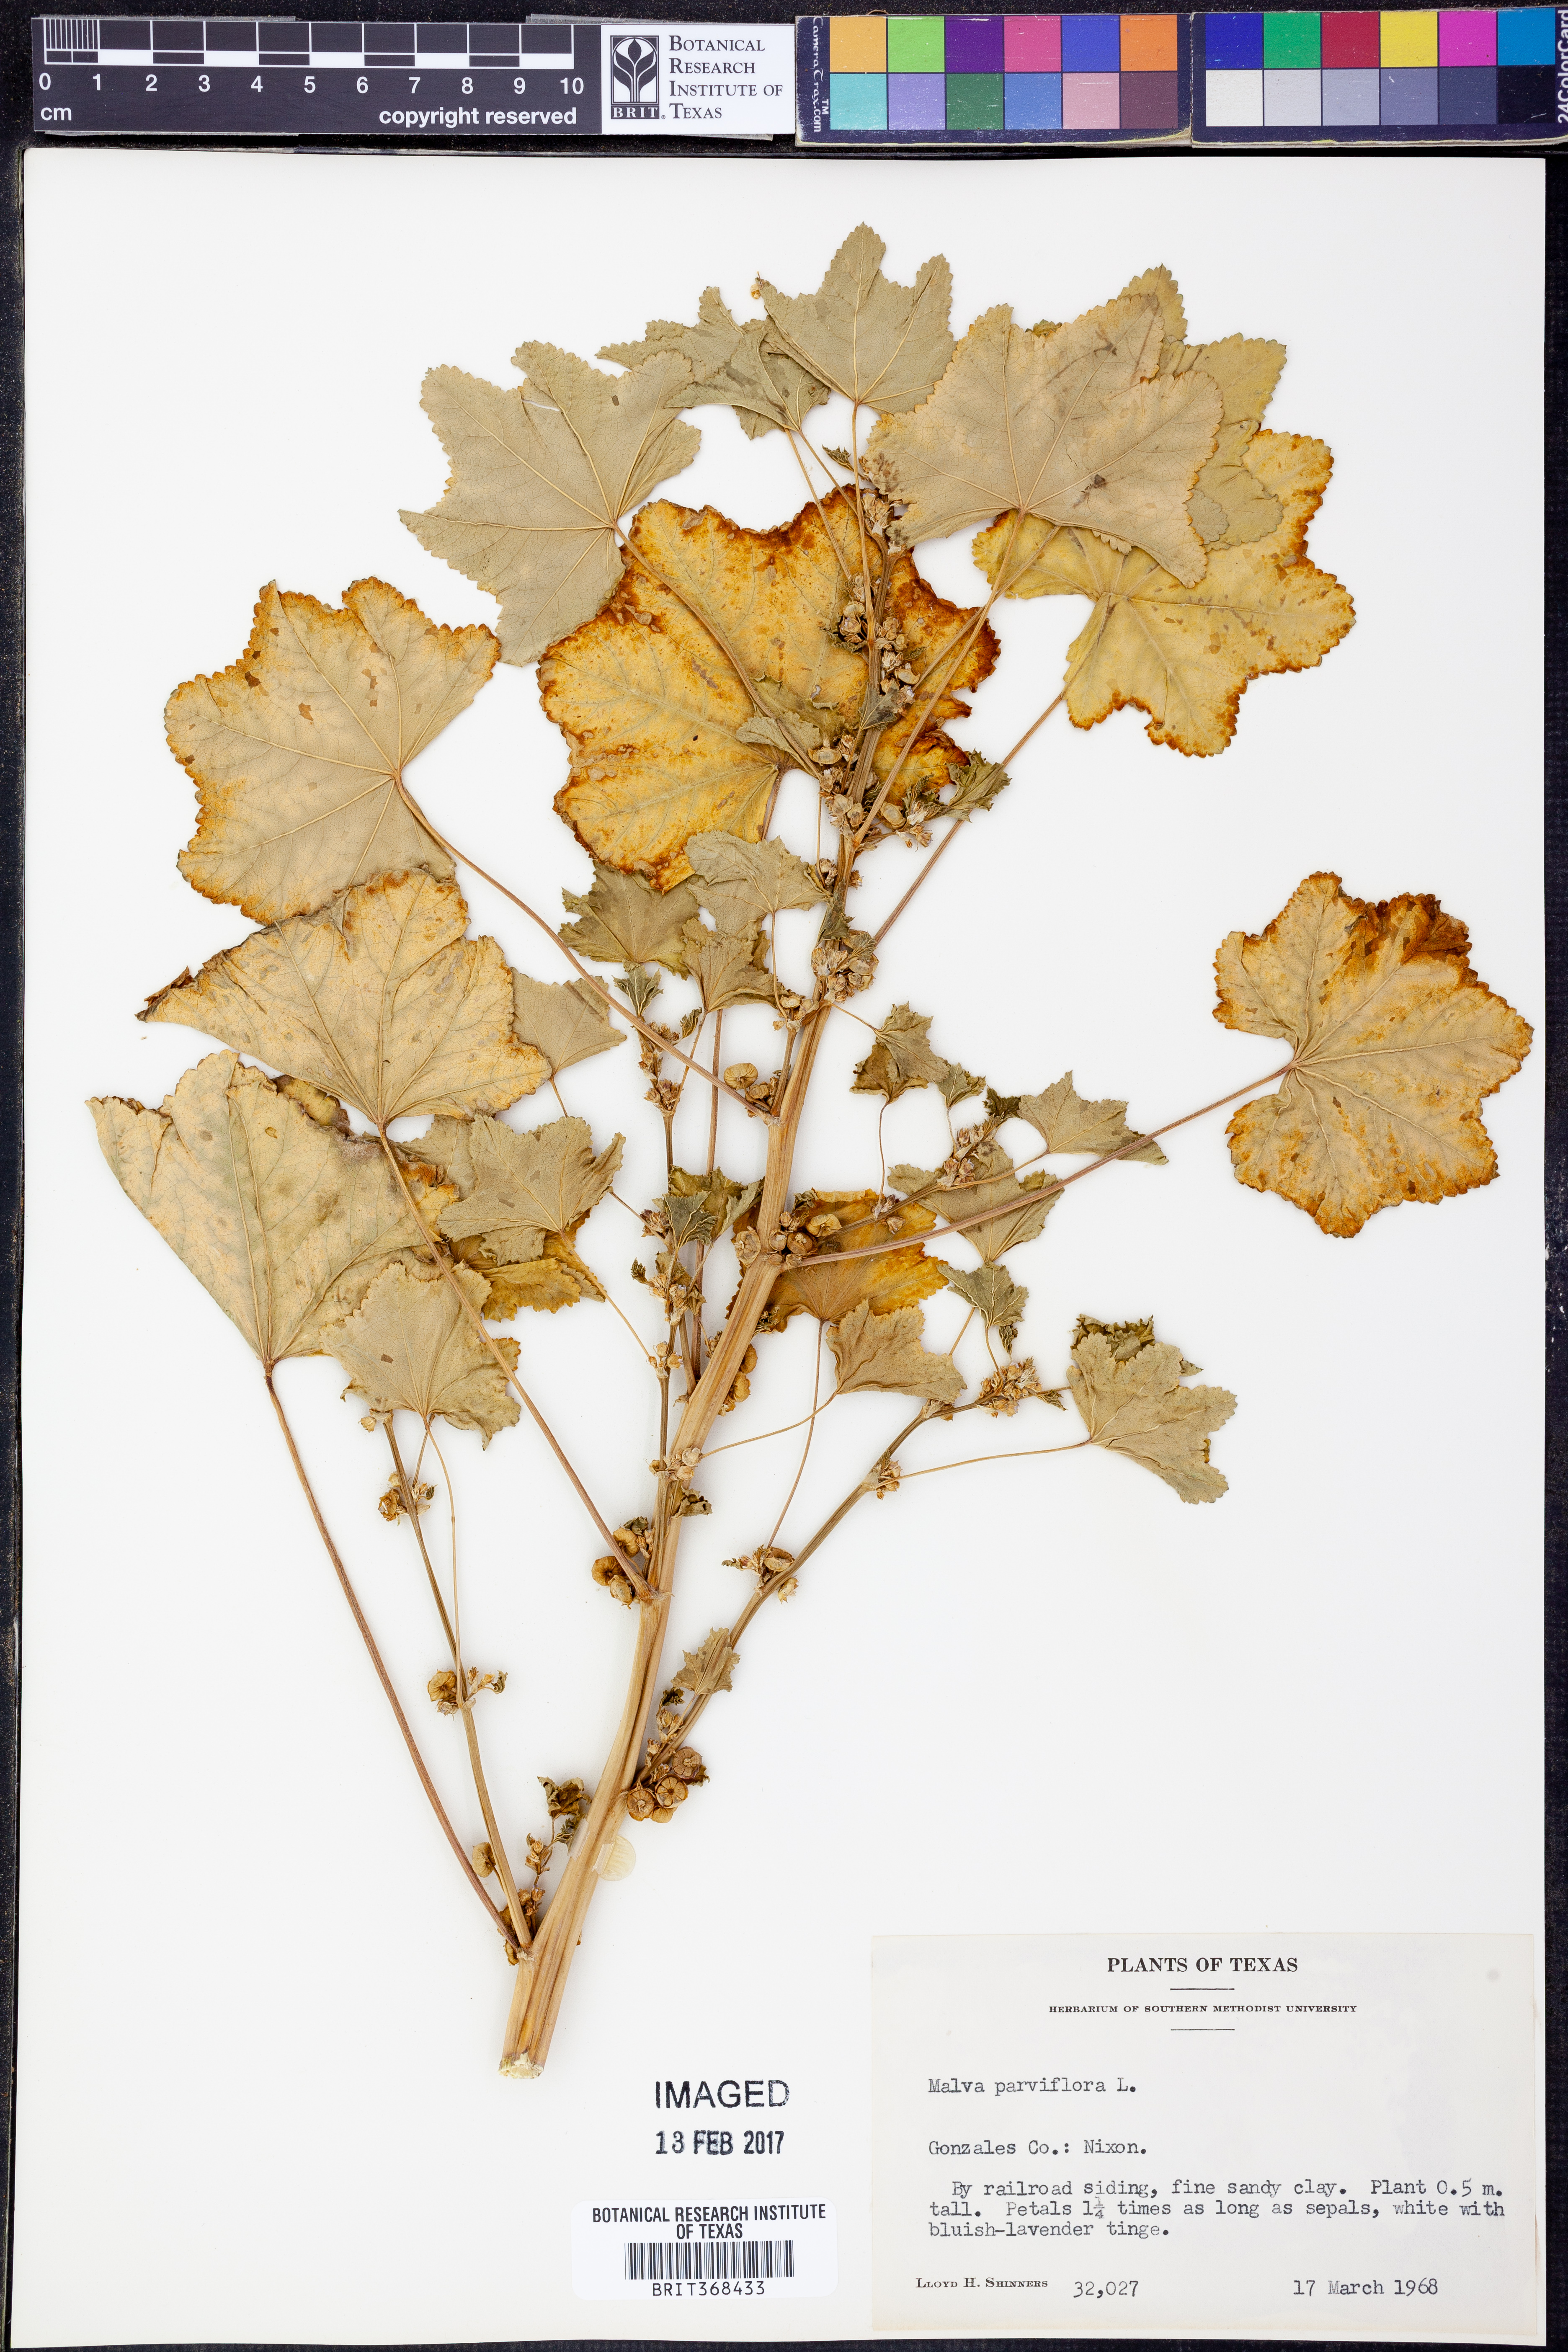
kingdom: Plantae
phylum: Tracheophyta
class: Magnoliopsida
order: Malvales
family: Malvaceae
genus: Malva
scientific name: Malva parviflora
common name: Least mallow
